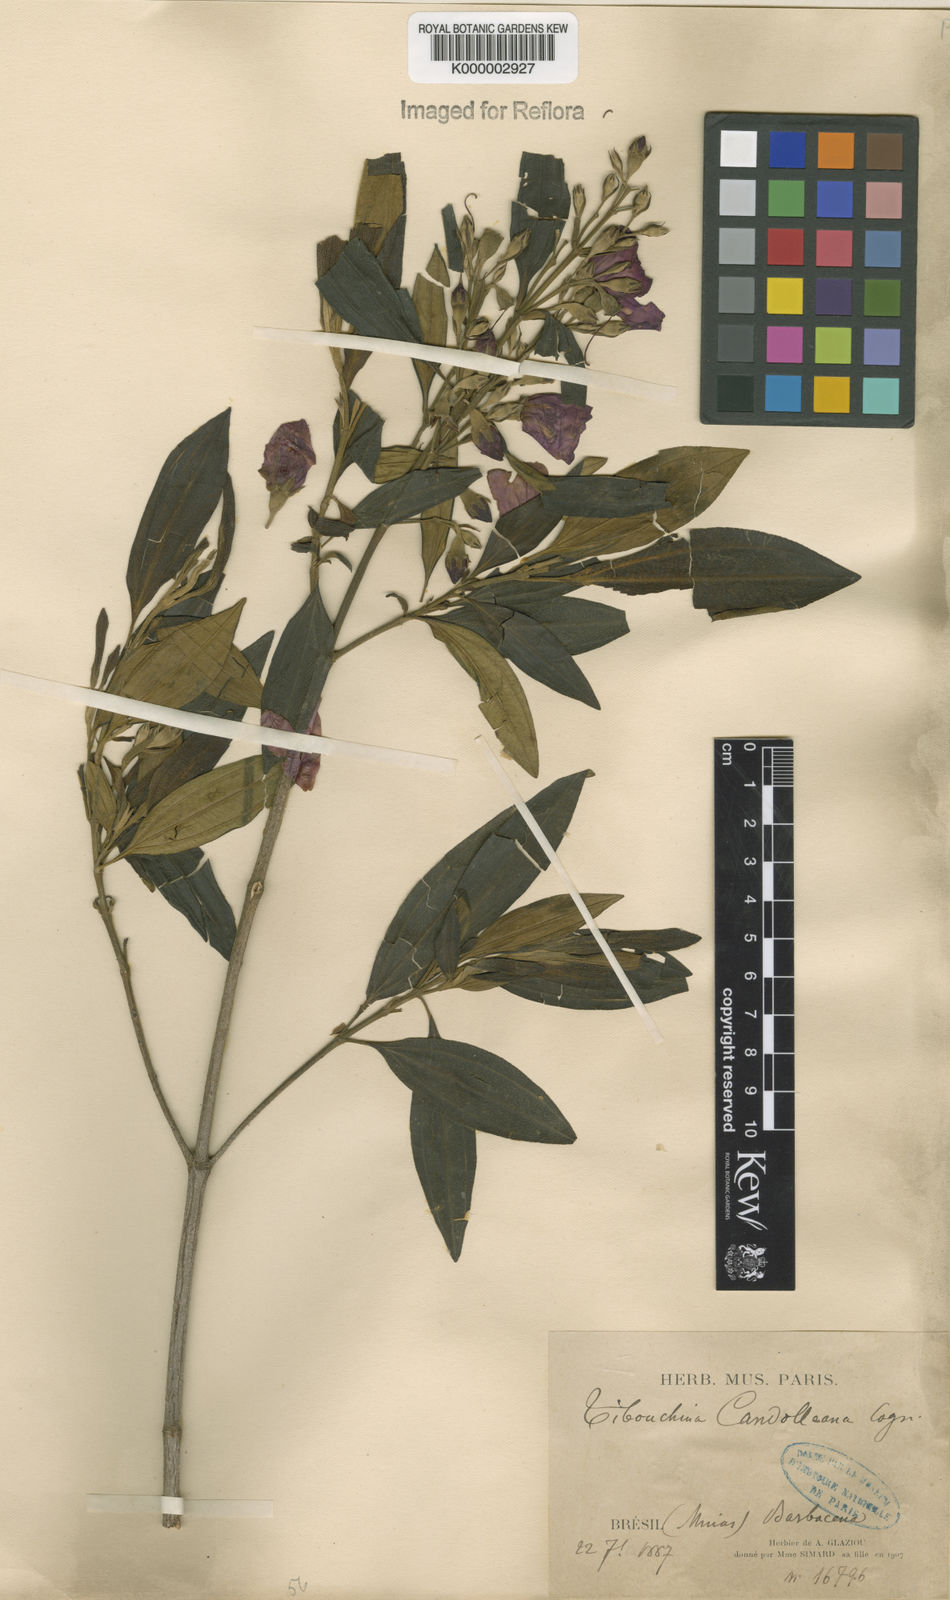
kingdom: Plantae
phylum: Tracheophyta
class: Magnoliopsida
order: Myrtales
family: Melastomataceae
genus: Pleroma
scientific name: Pleroma candolleanum
